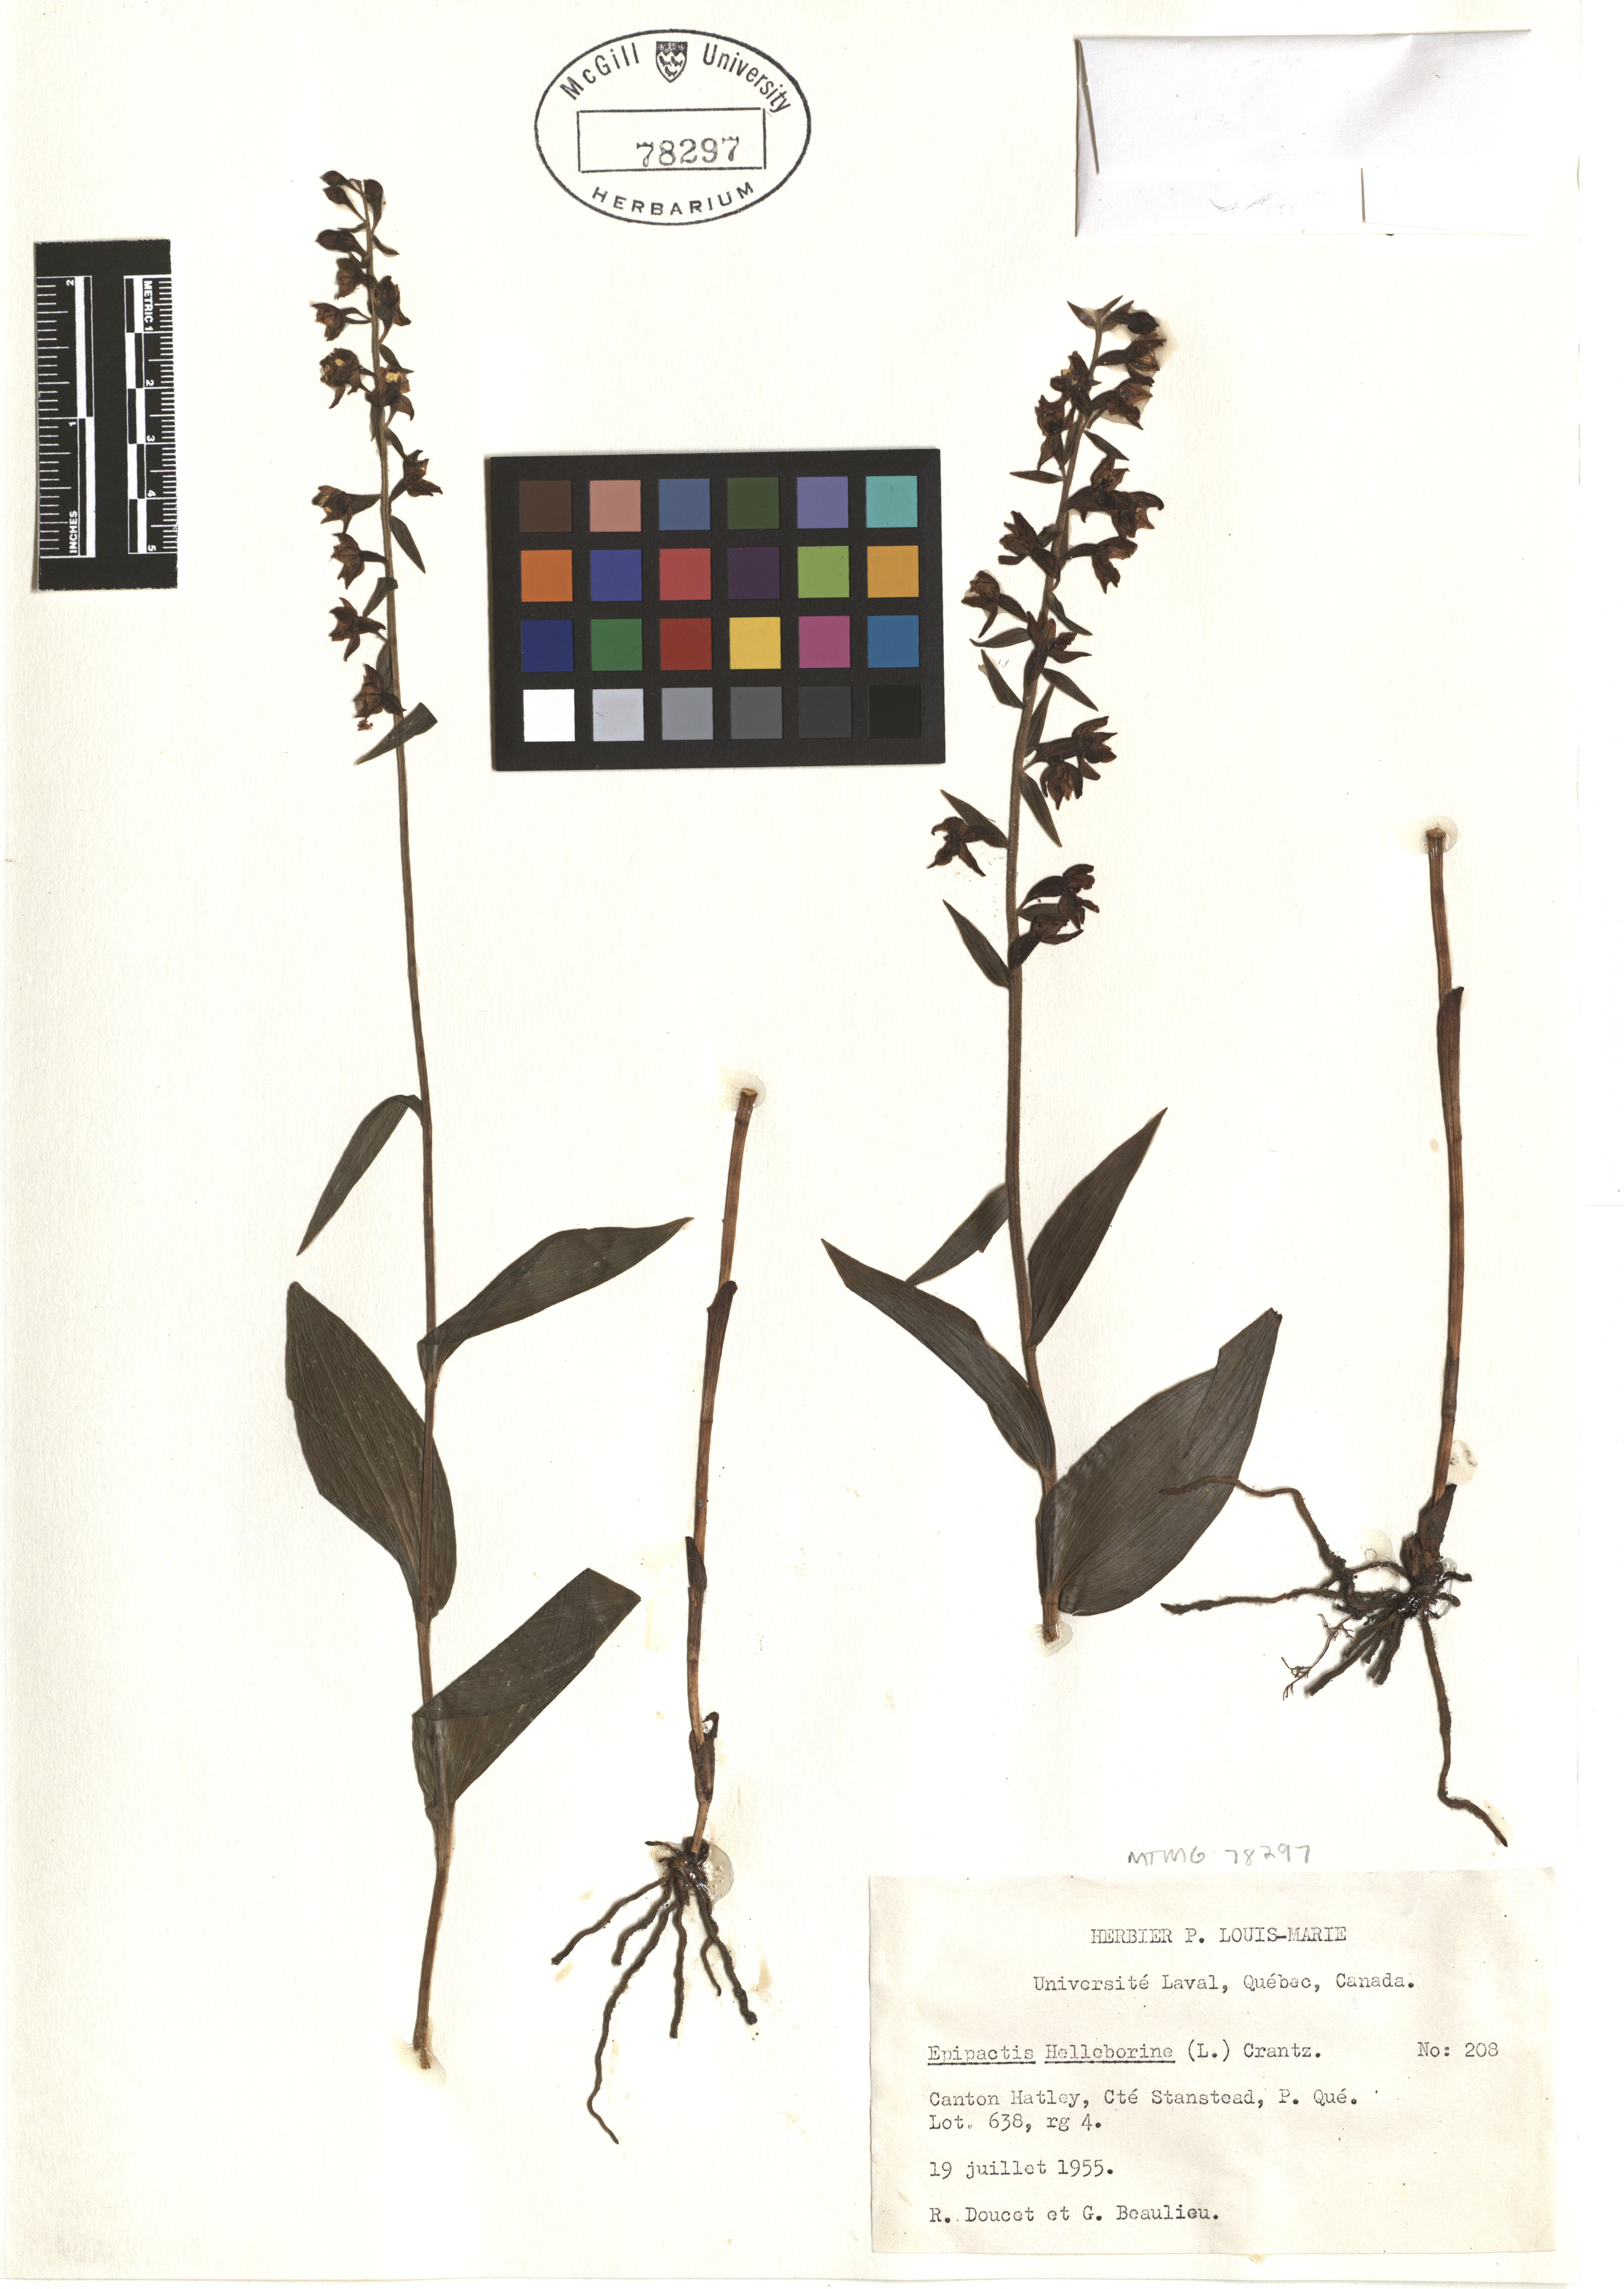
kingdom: Plantae
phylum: Tracheophyta
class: Liliopsida
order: Asparagales
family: Orchidaceae
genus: Epipactis
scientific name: Epipactis helleborine
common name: Broad-leaved helleborine
